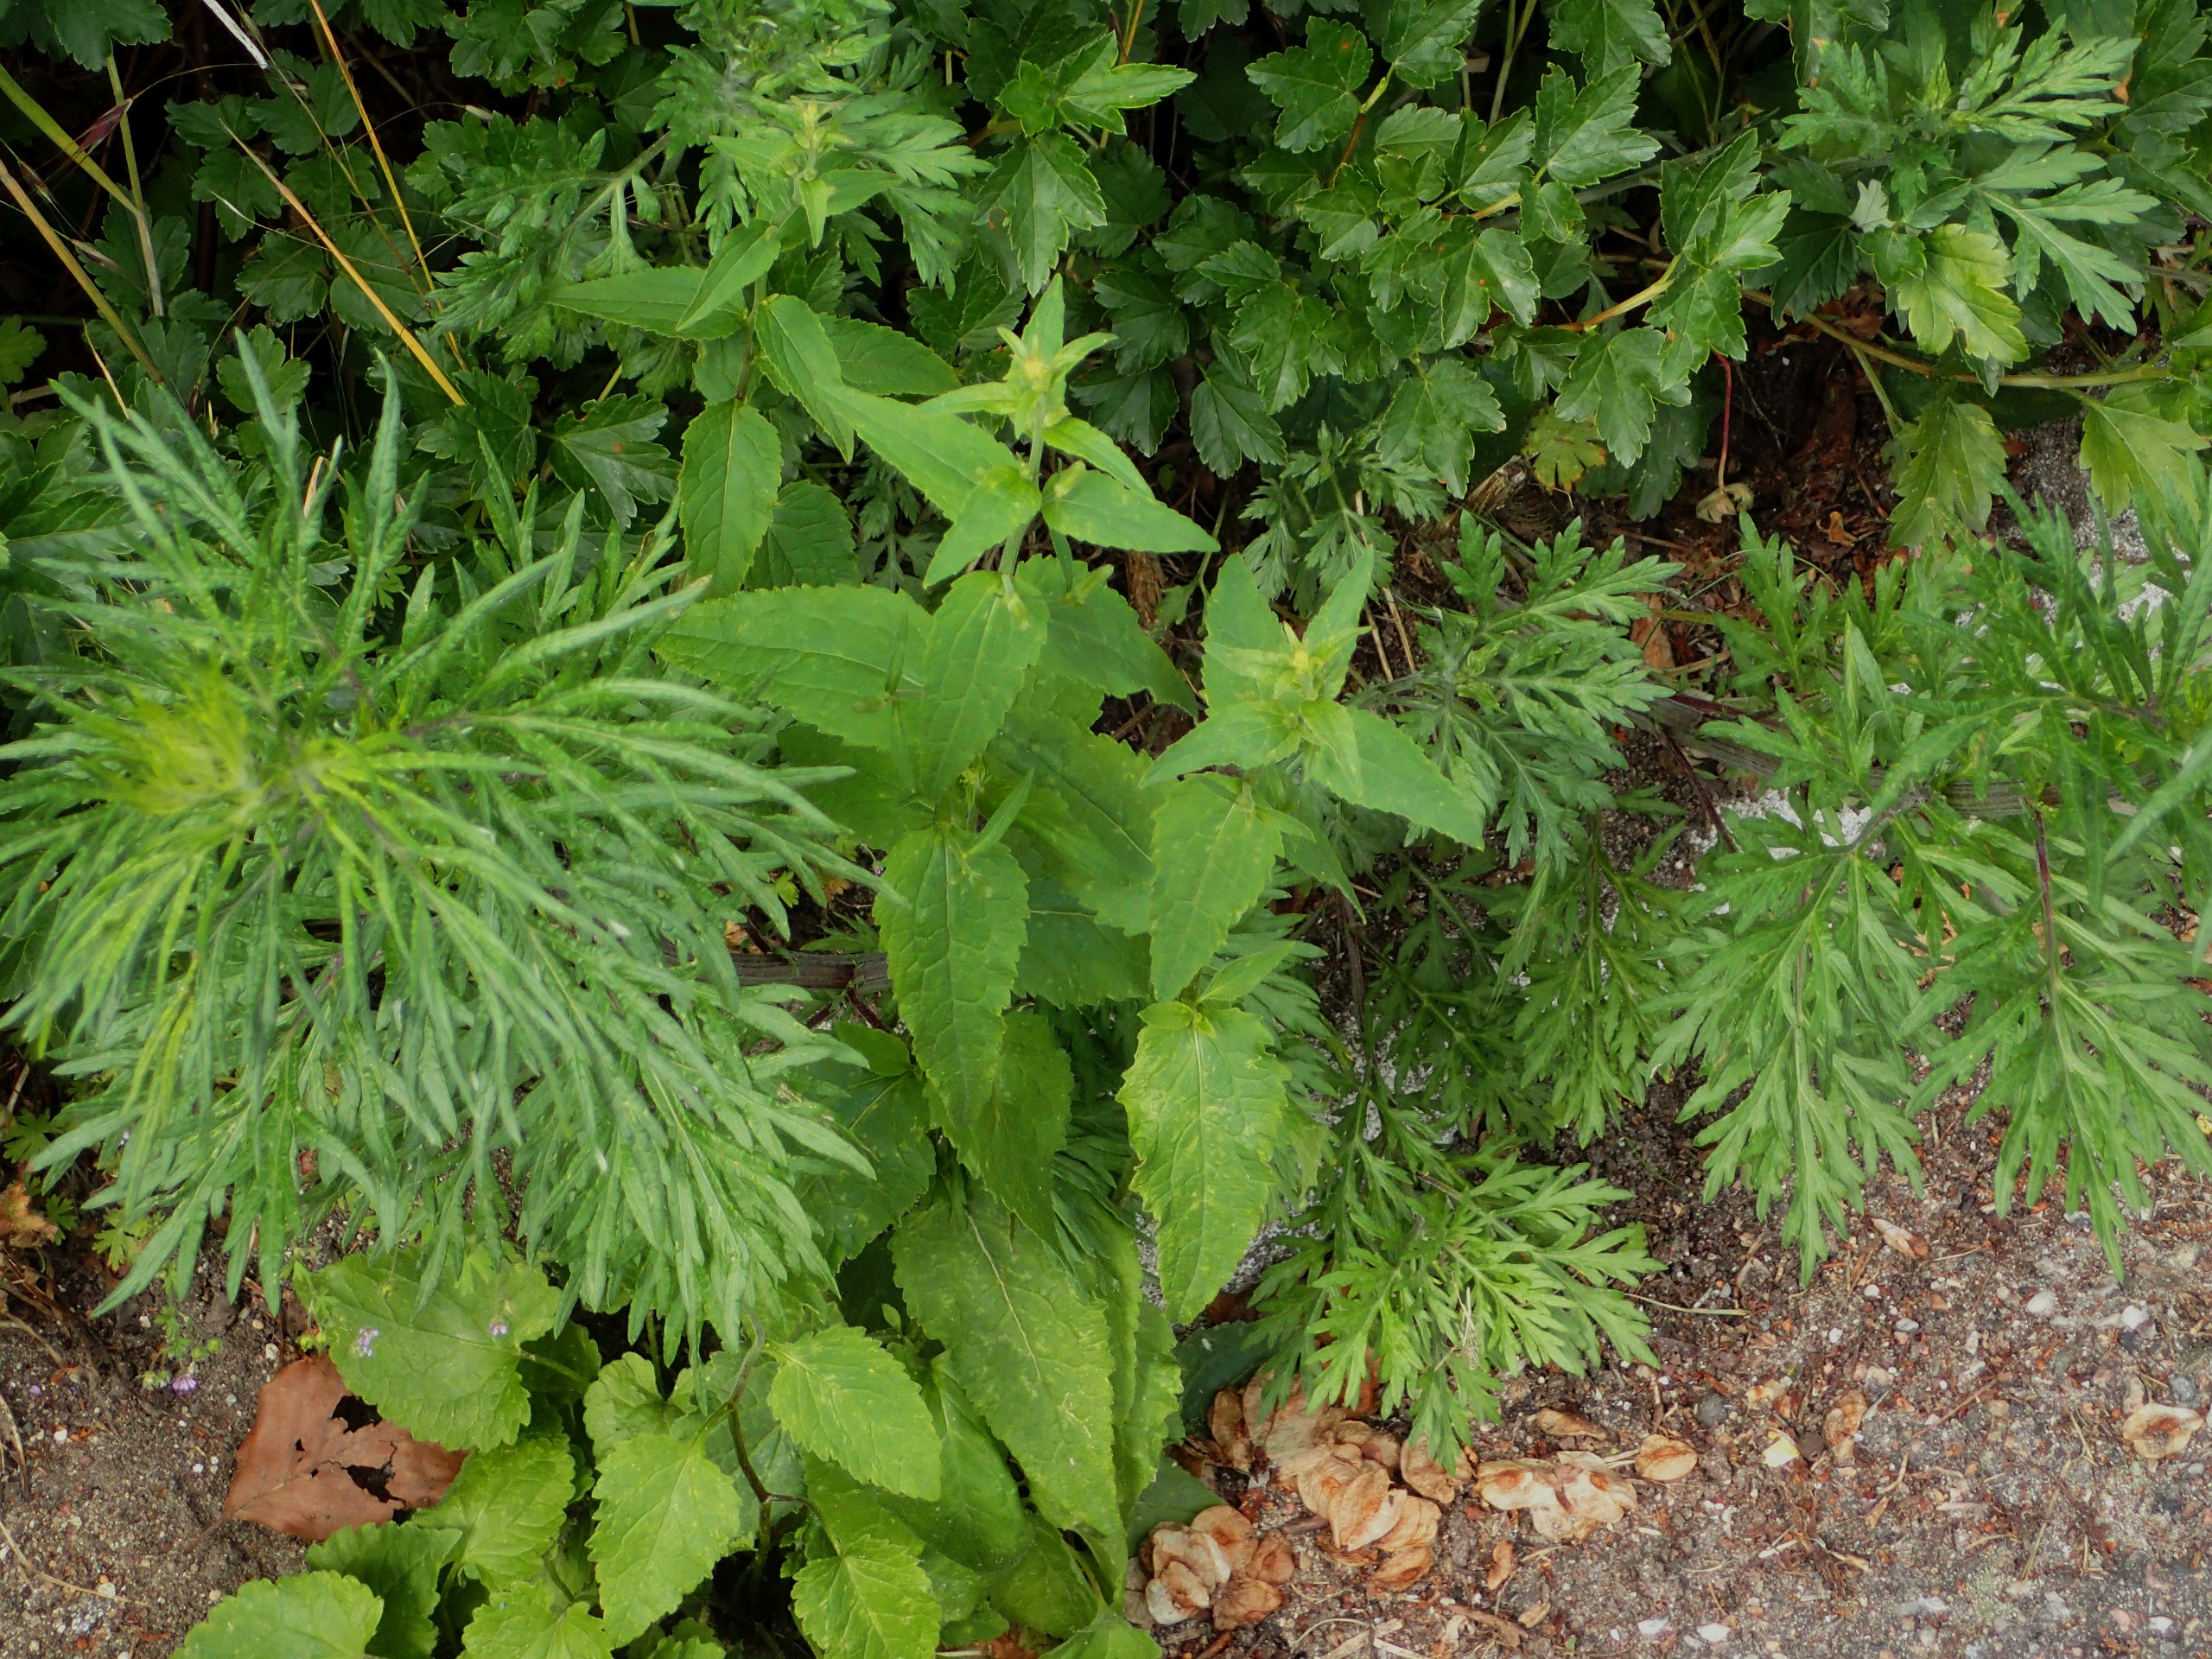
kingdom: Plantae
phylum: Tracheophyta
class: Magnoliopsida
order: Asterales
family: Campanulaceae
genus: Campanula
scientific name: Campanula rapunculoides
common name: Ensidig klokke
